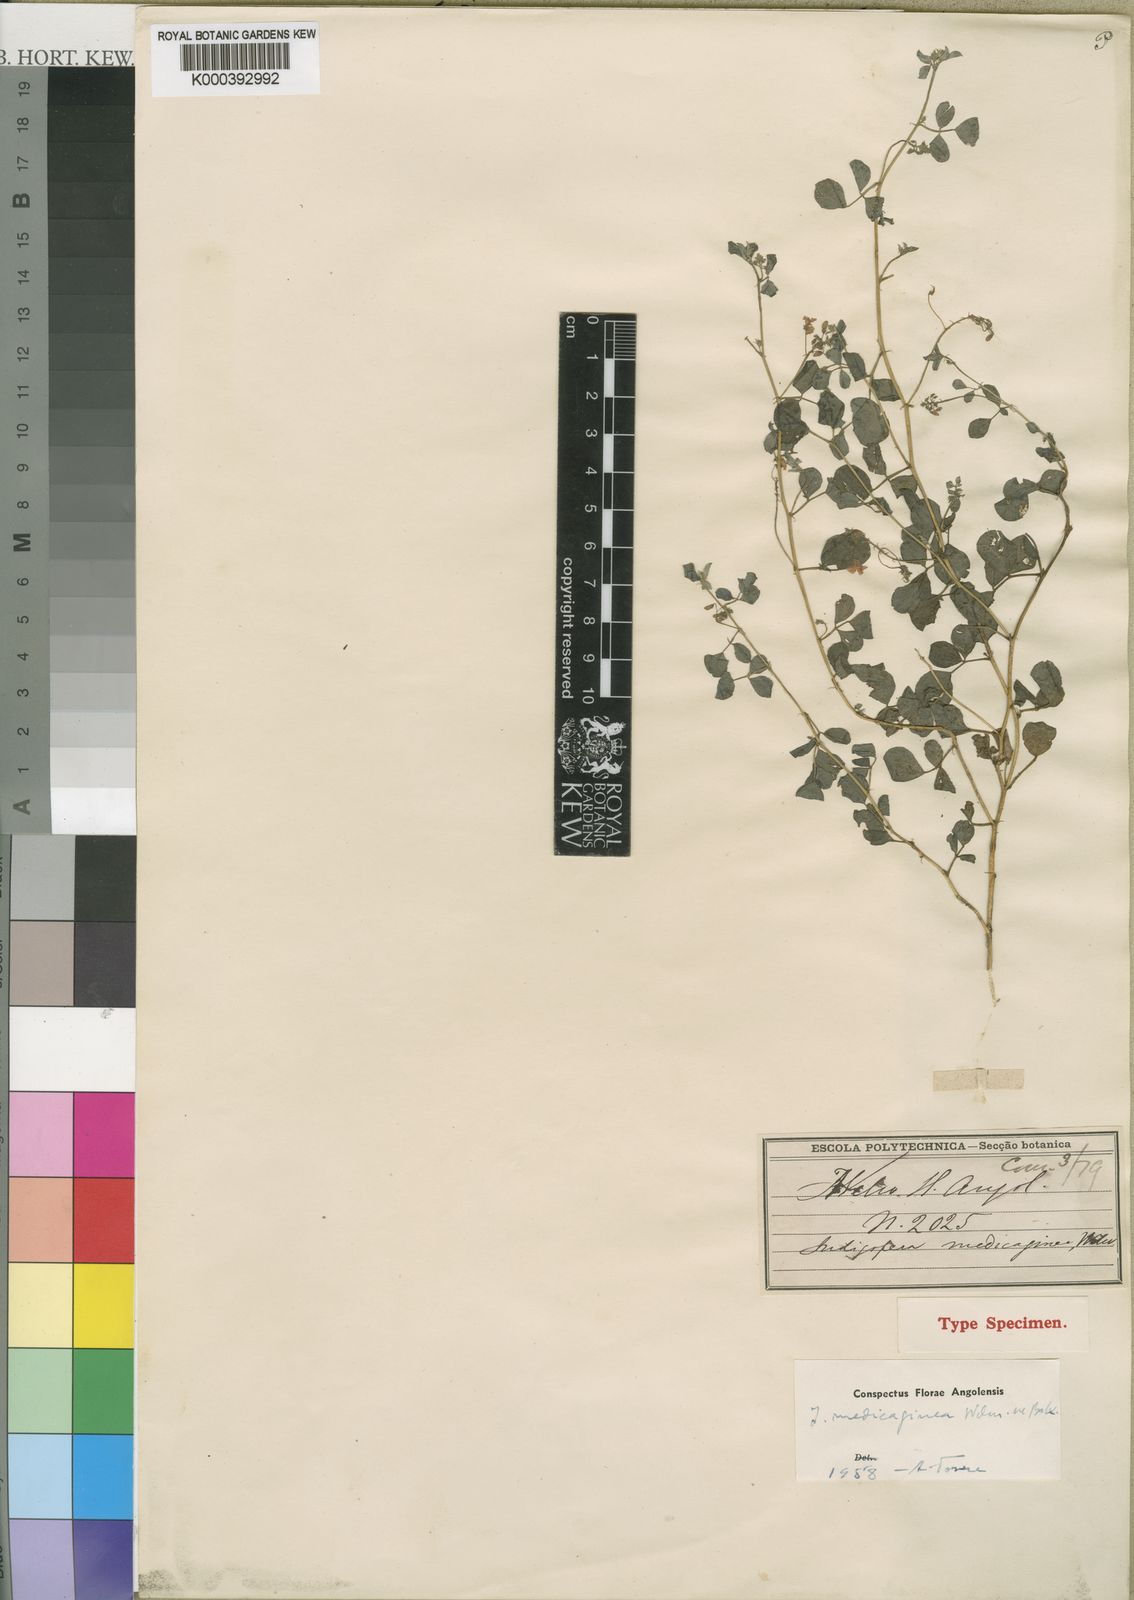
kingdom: Plantae
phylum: Tracheophyta
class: Magnoliopsida
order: Fabales
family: Fabaceae
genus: Microcharis
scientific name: Microcharis medicaginea
